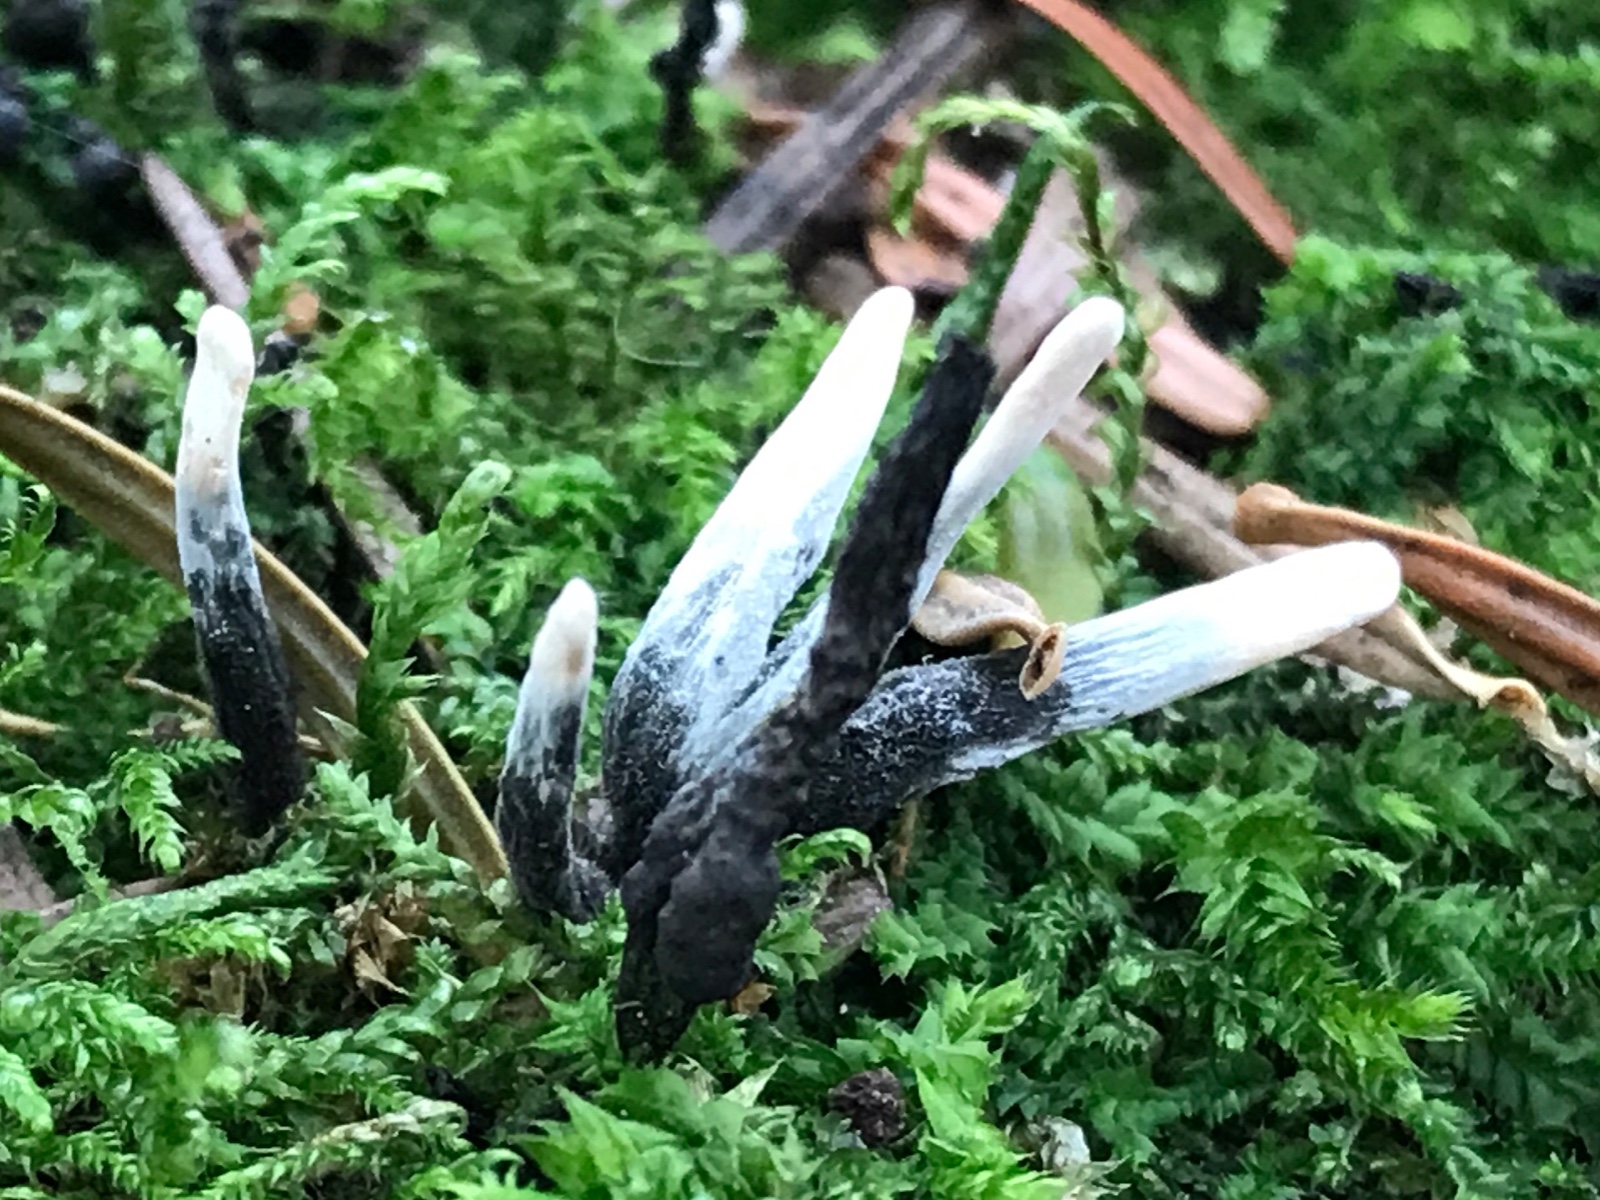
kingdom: Fungi
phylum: Ascomycota
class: Sordariomycetes
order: Xylariales
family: Xylariaceae
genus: Xylaria
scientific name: Xylaria hypoxylon
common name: grenet stødsvamp
